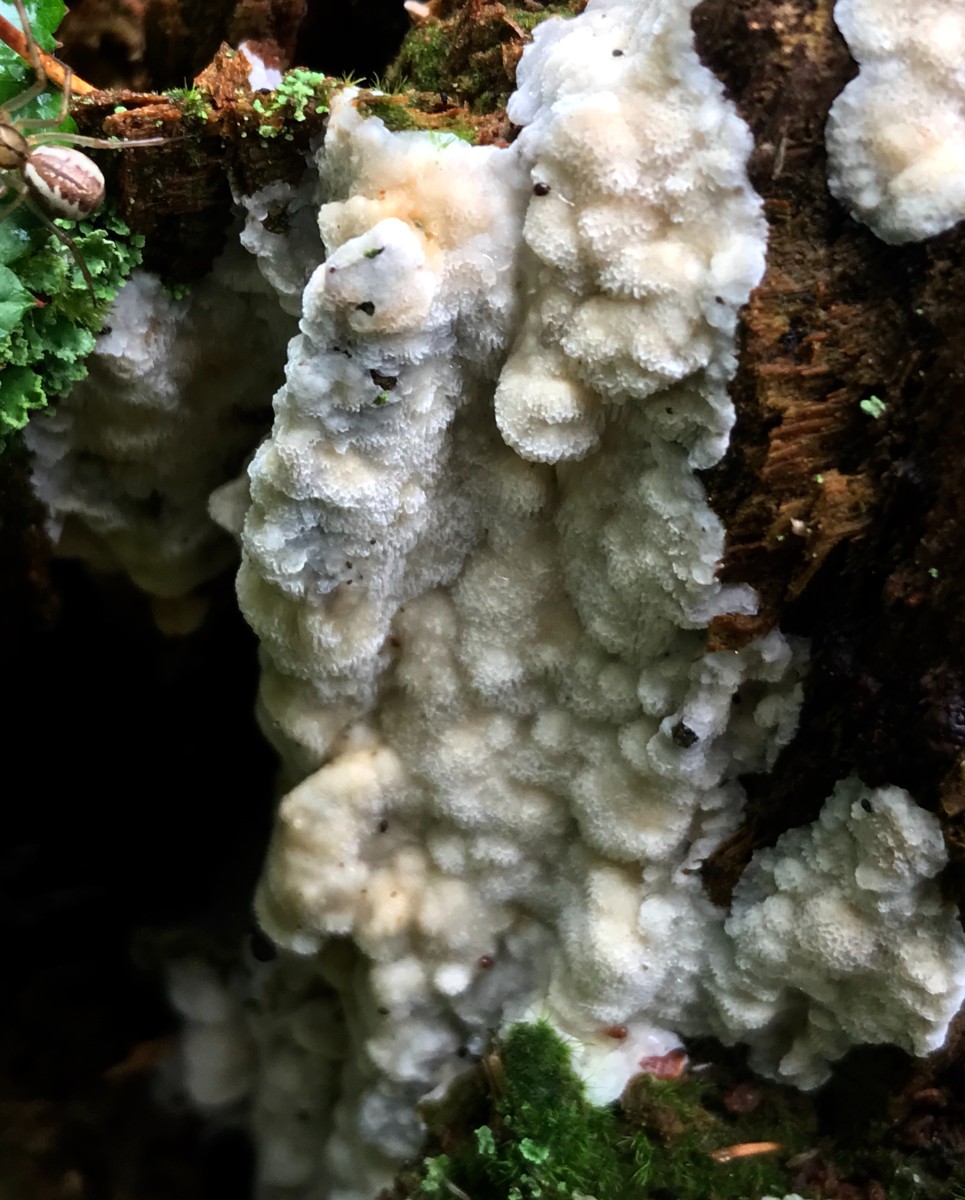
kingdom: Fungi
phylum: Basidiomycota
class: Agaricomycetes
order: Polyporales
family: Meruliaceae
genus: Physisporinus
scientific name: Physisporinus vitreus
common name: mastesvamp
